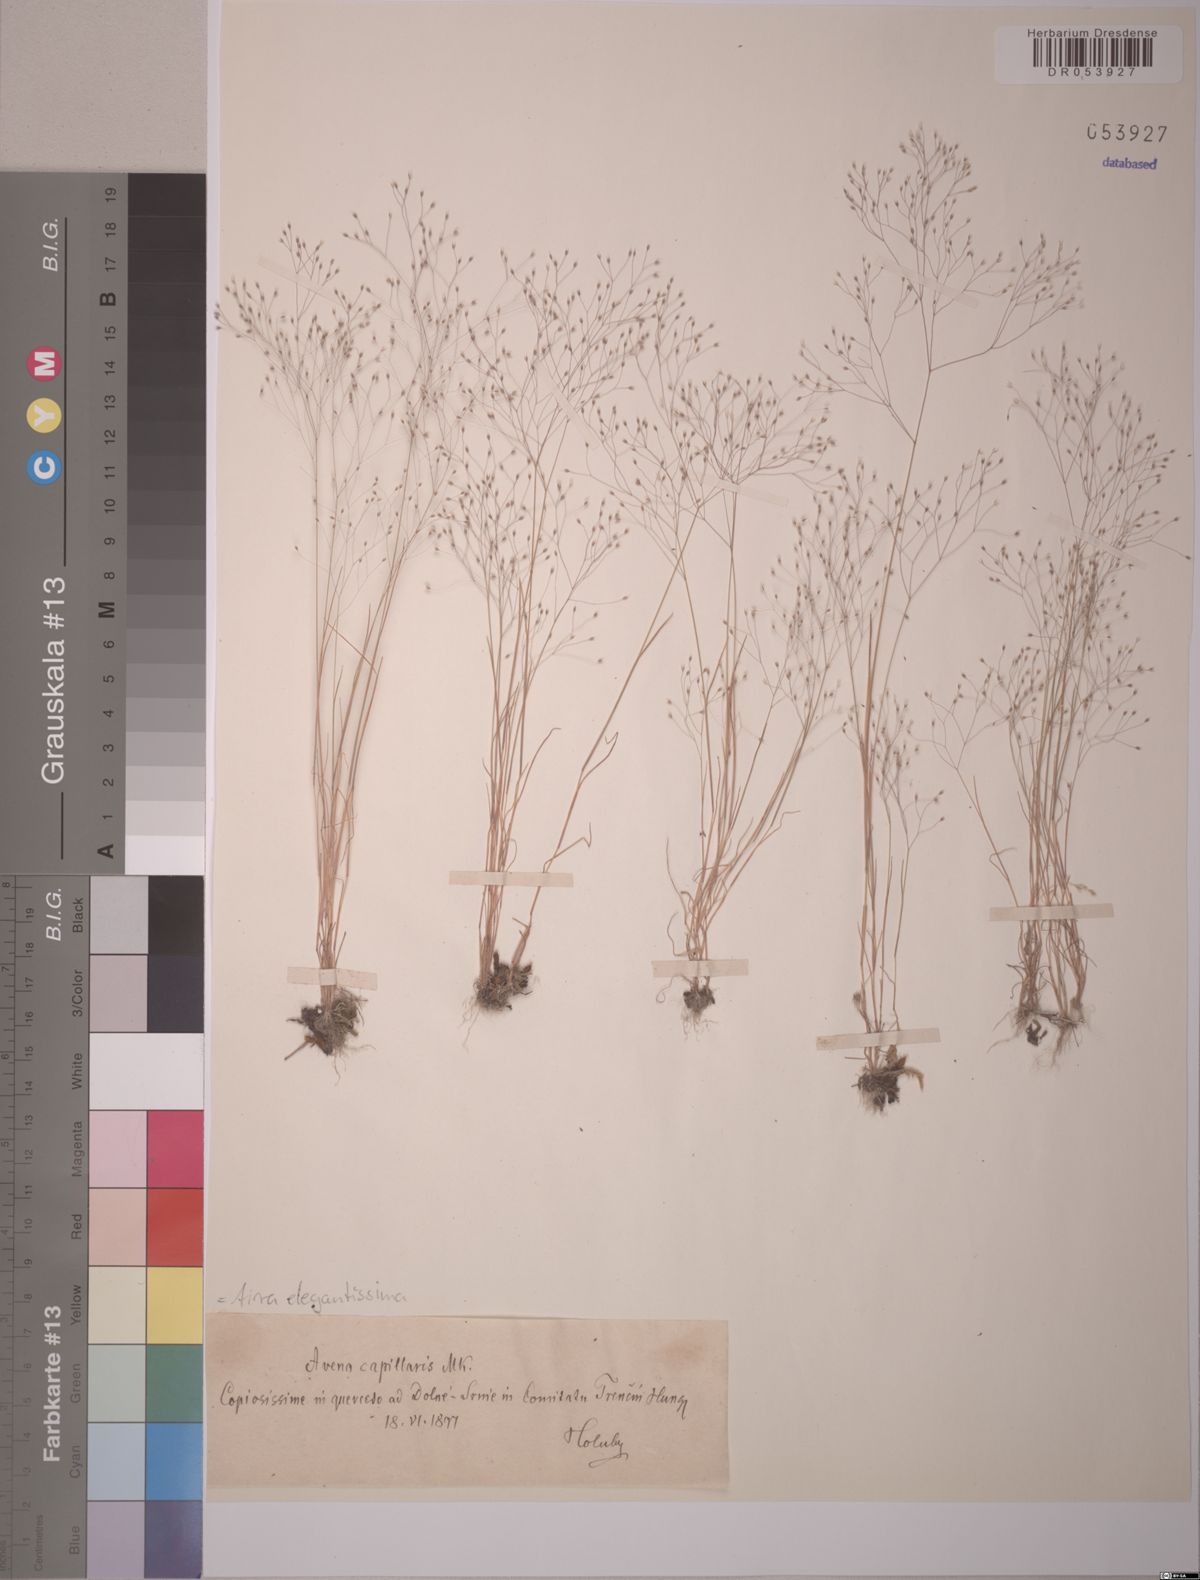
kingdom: Plantae
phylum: Tracheophyta
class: Liliopsida
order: Poales
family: Poaceae
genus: Aira
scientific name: Aira elegans
